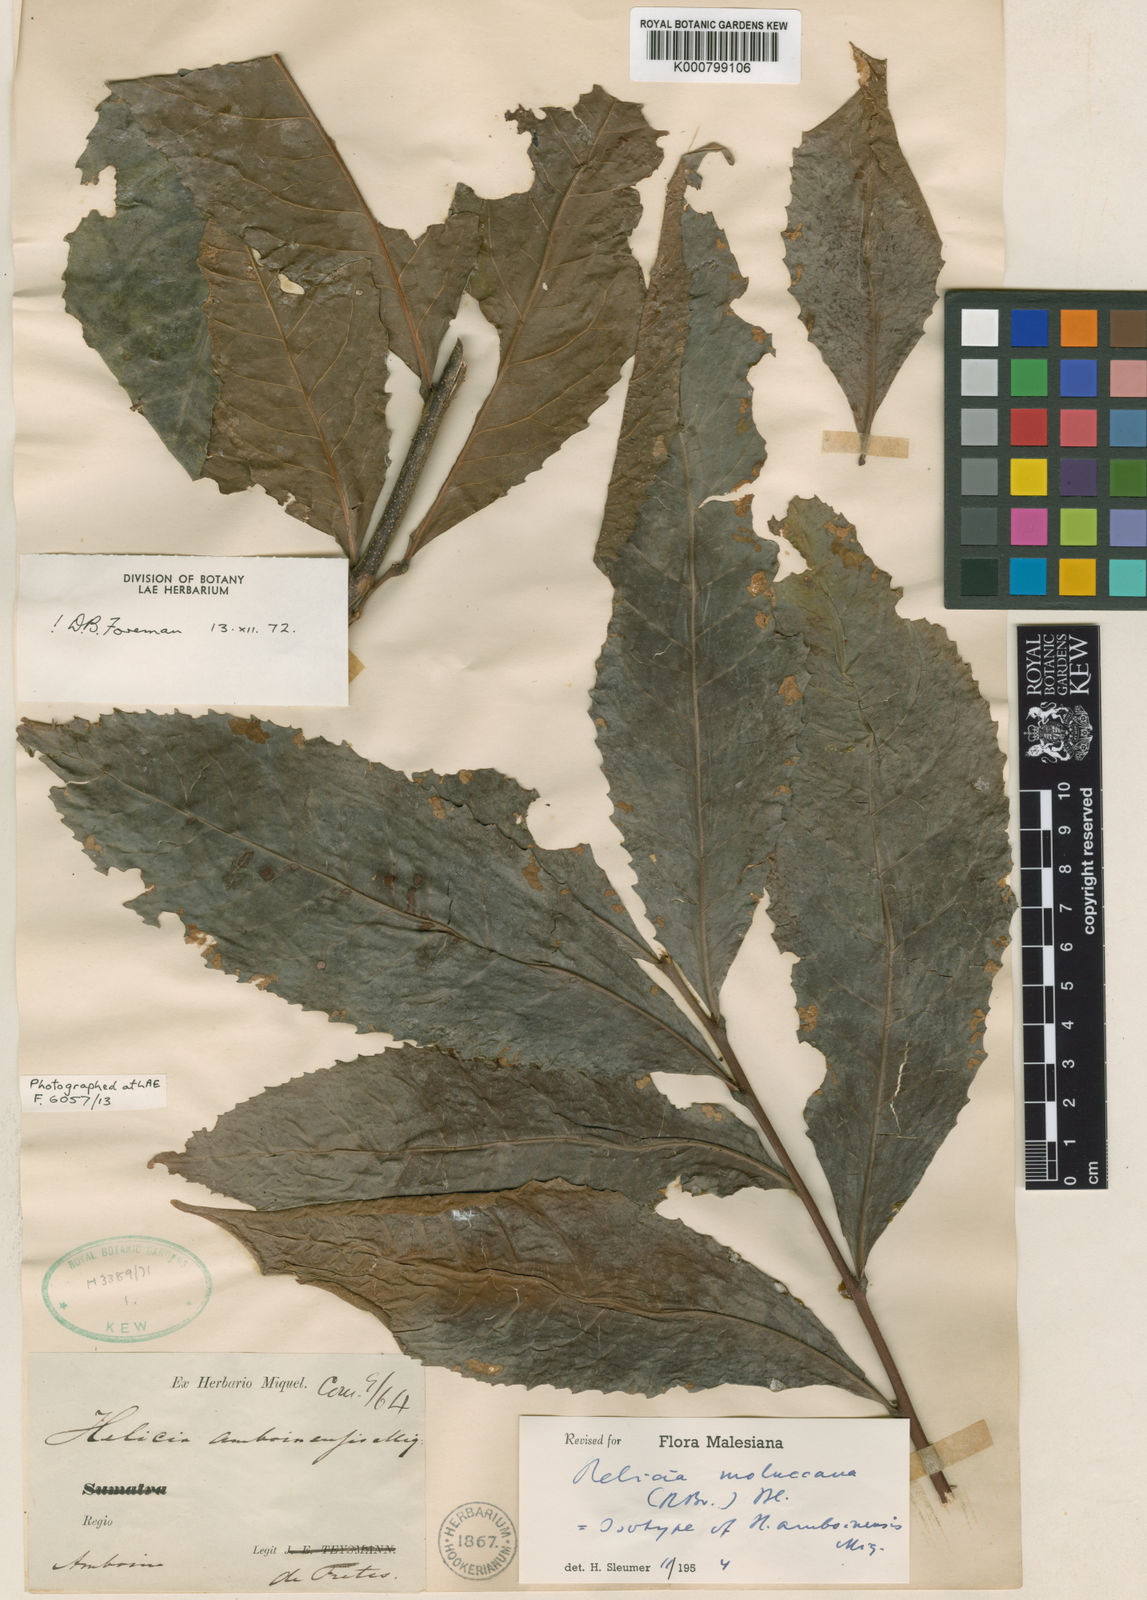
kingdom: Plantae
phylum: Tracheophyta
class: Magnoliopsida
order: Proteales
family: Proteaceae
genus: Helicia
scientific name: Helicia moluccana
